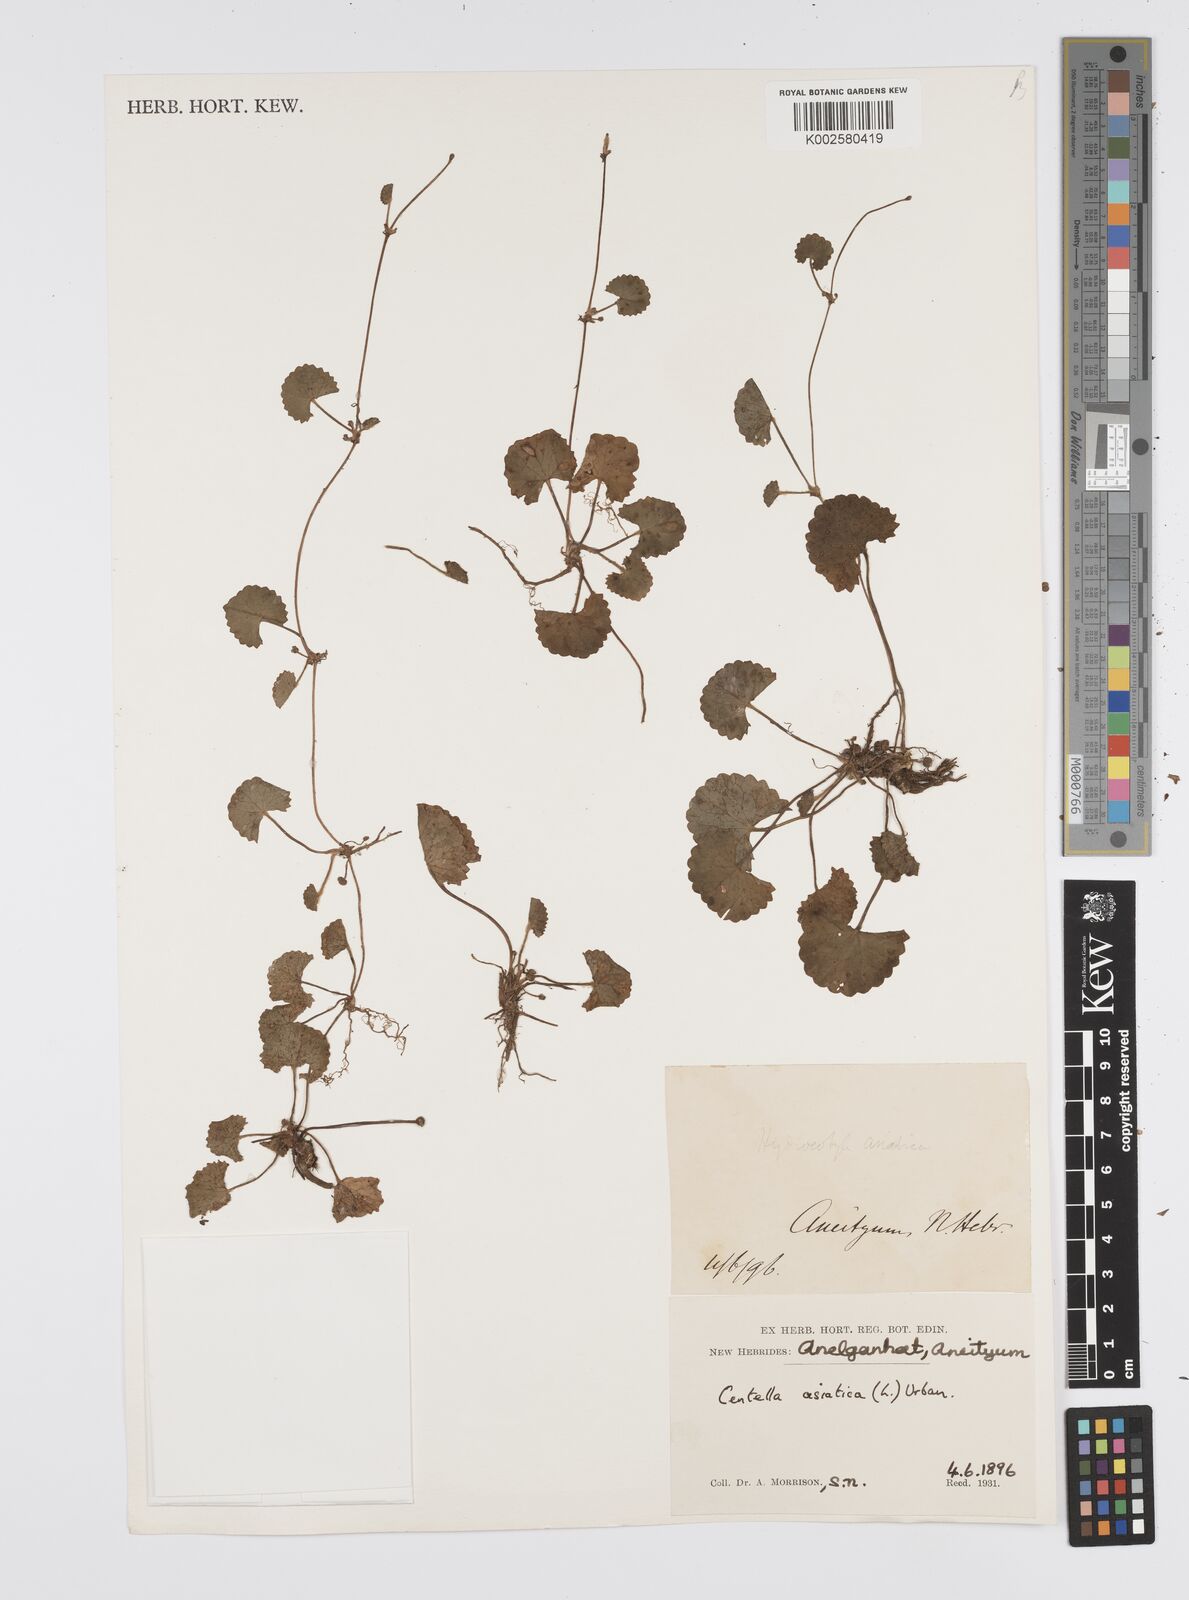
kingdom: Plantae
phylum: Tracheophyta
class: Magnoliopsida
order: Apiales
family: Apiaceae
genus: Centella
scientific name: Centella asiatica
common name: Spadeleaf
